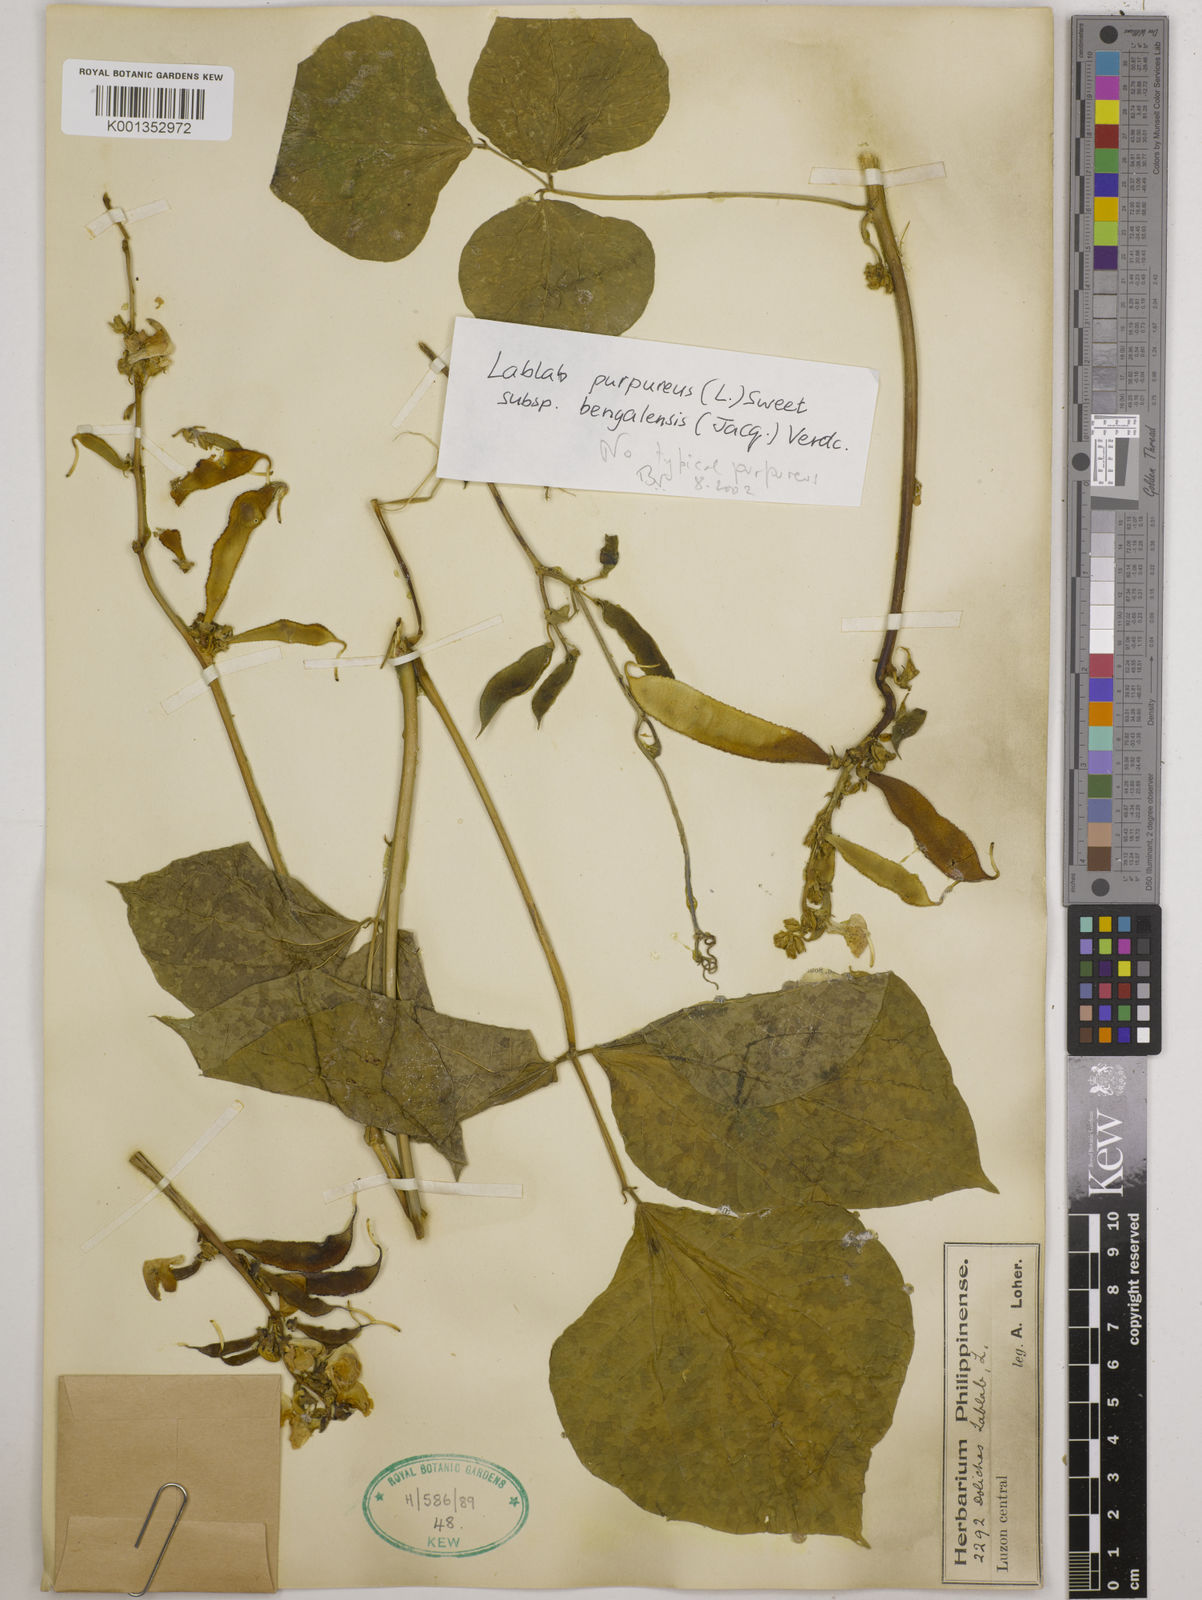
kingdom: Plantae
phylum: Tracheophyta
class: Magnoliopsida
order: Fabales
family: Fabaceae
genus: Lablab
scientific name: Lablab purpureus
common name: Lablab-bean
